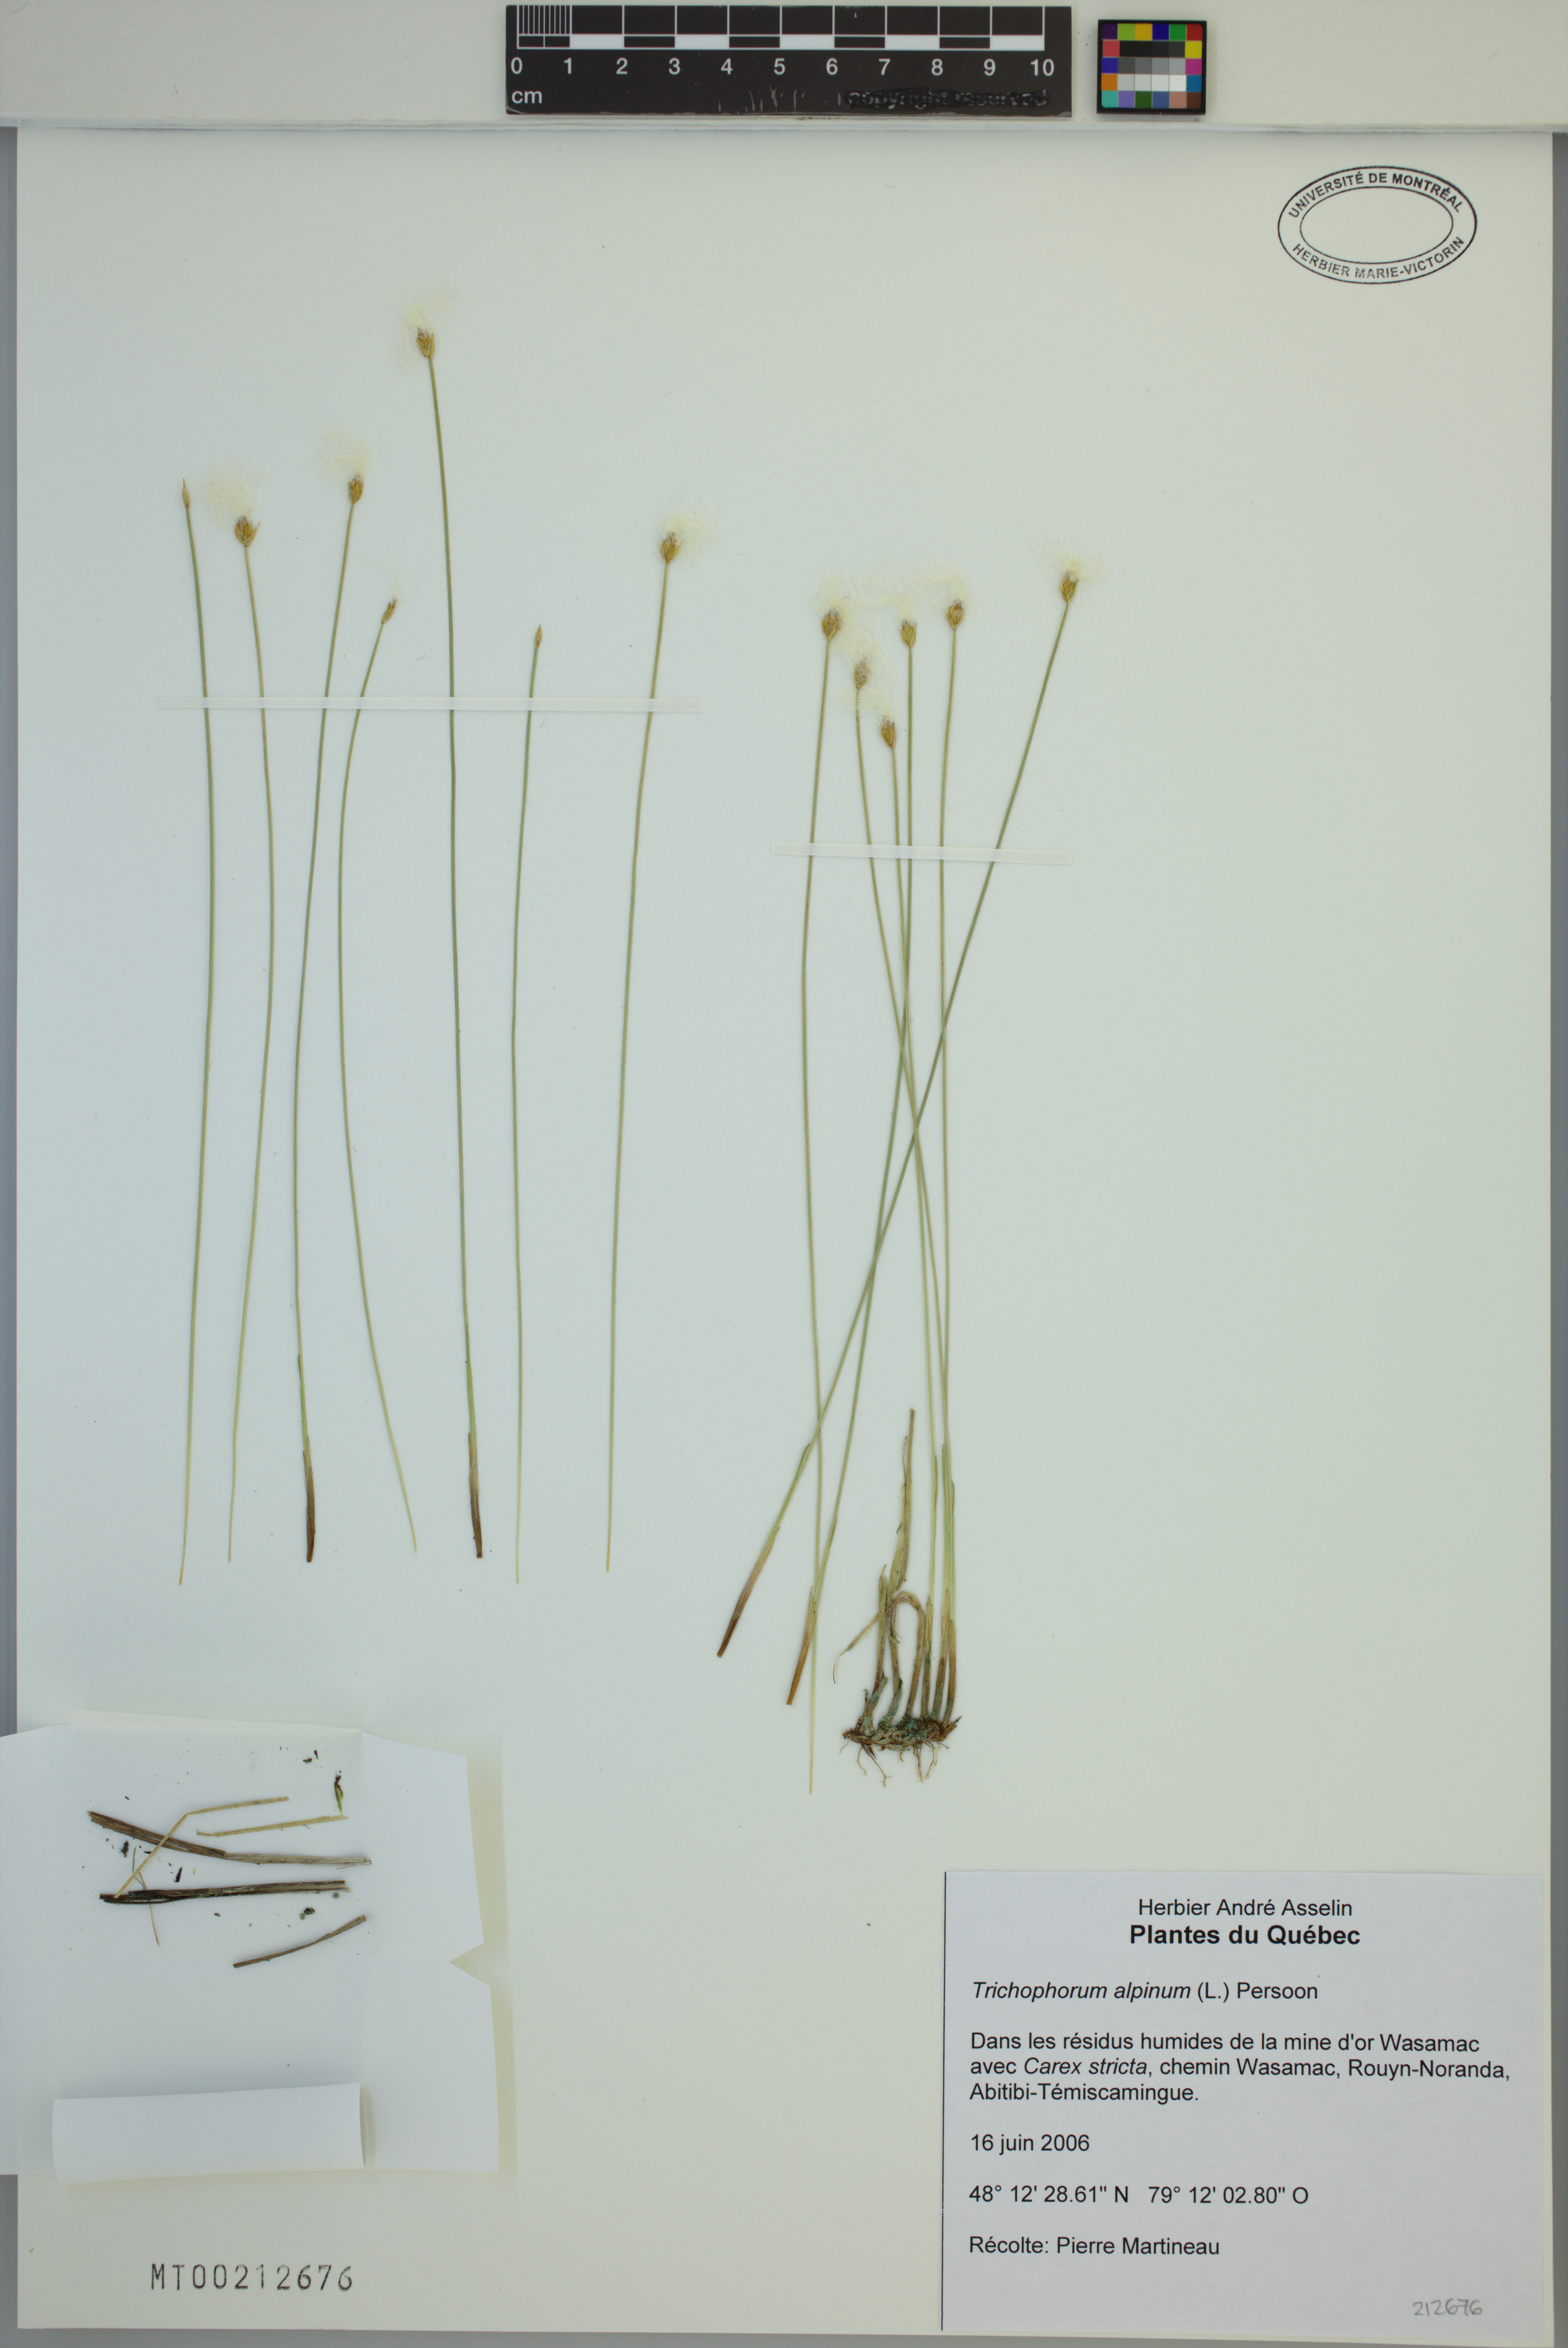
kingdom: Plantae
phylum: Tracheophyta
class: Liliopsida
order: Poales
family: Cyperaceae
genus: Trichophorum
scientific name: Trichophorum alpinum
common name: Alpine bulrush
